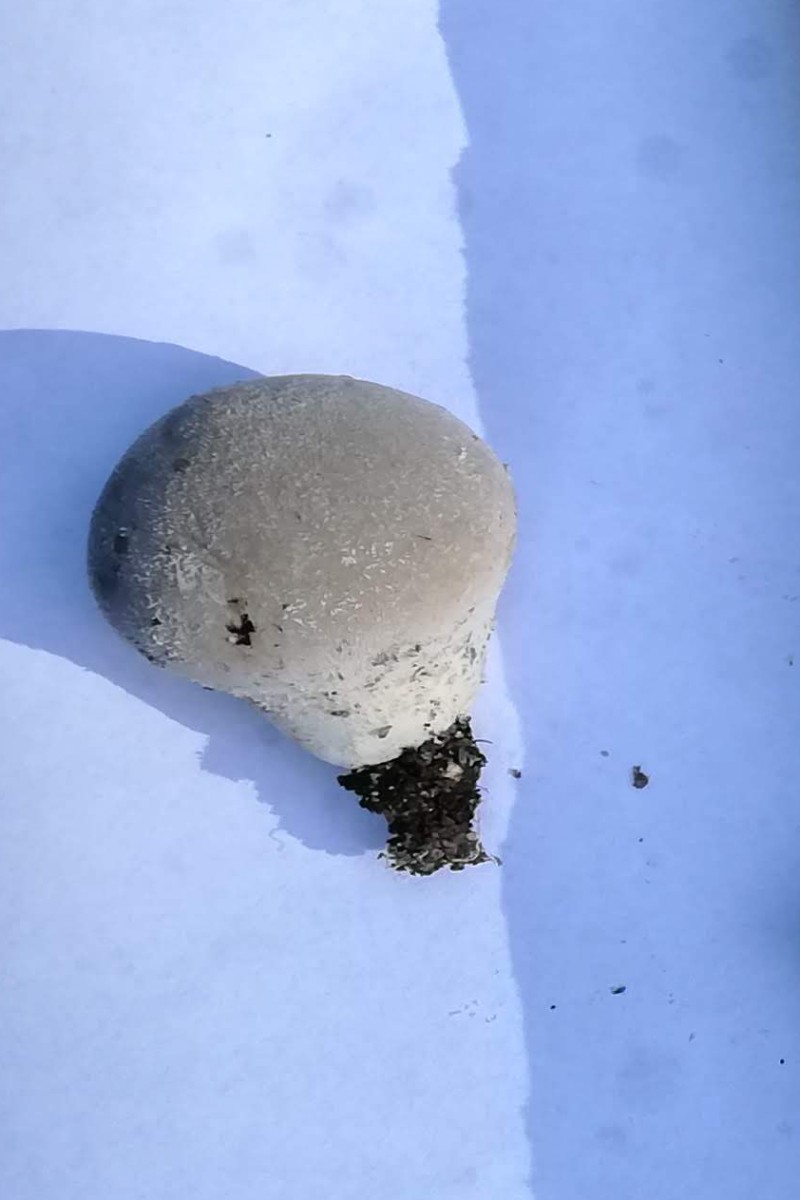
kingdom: Fungi
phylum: Basidiomycota
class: Agaricomycetes
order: Agaricales
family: Lycoperdaceae
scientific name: Lycoperdaceae
